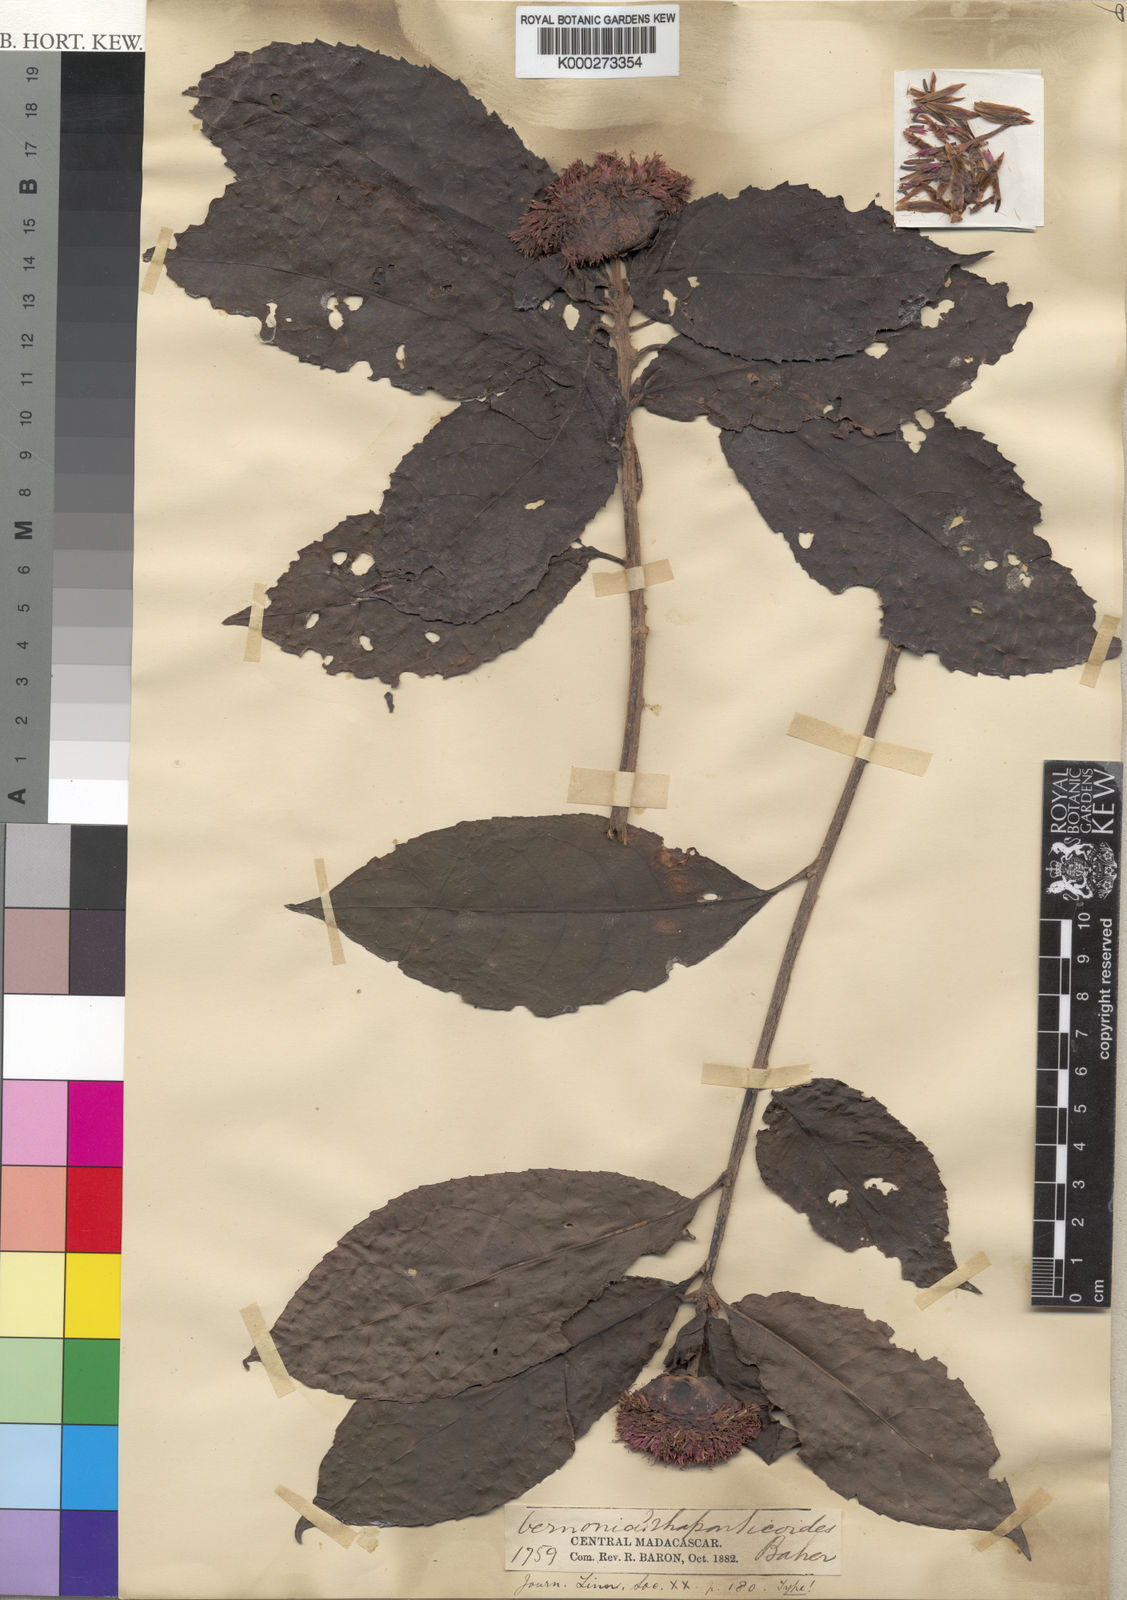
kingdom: Plantae
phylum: Tracheophyta
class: Magnoliopsida
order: Asterales
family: Asteraceae
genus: Centauropsis
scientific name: Centauropsis rhaponticoides
